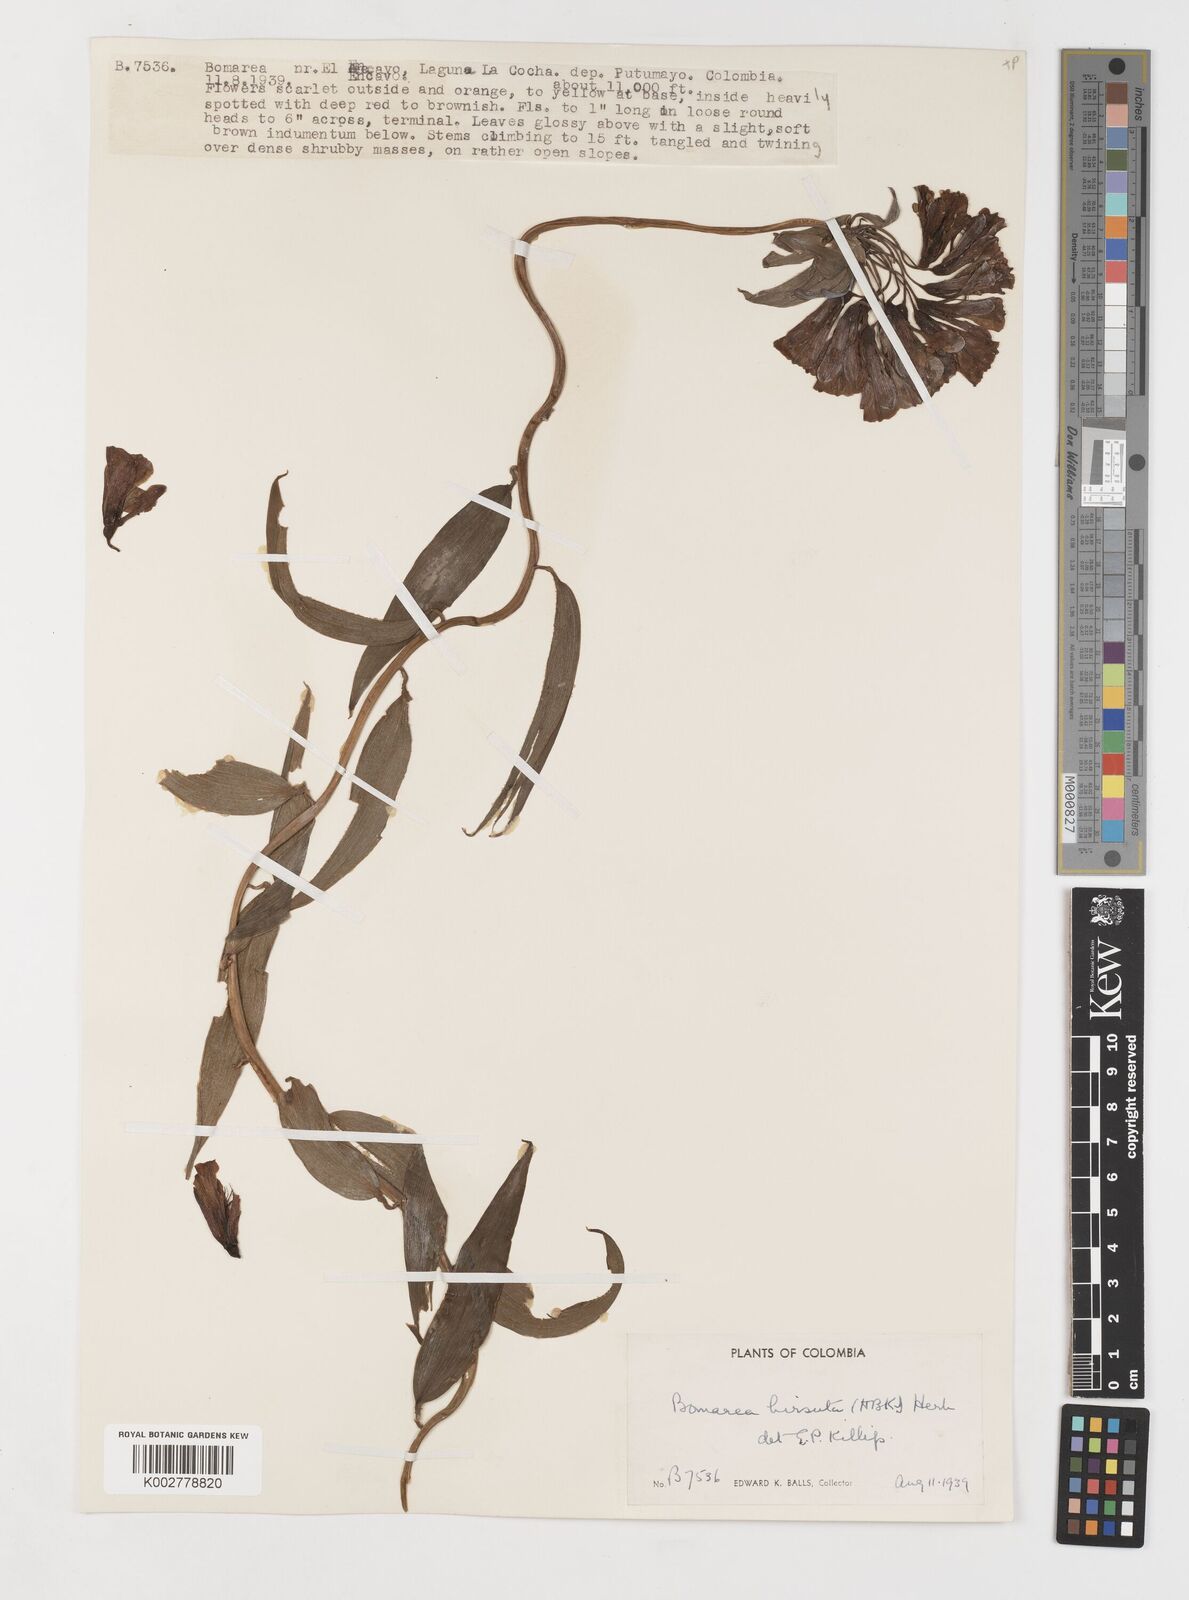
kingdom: Plantae
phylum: Tracheophyta
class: Liliopsida
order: Liliales
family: Alstroemeriaceae
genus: Bomarea
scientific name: Bomarea hirsuta
